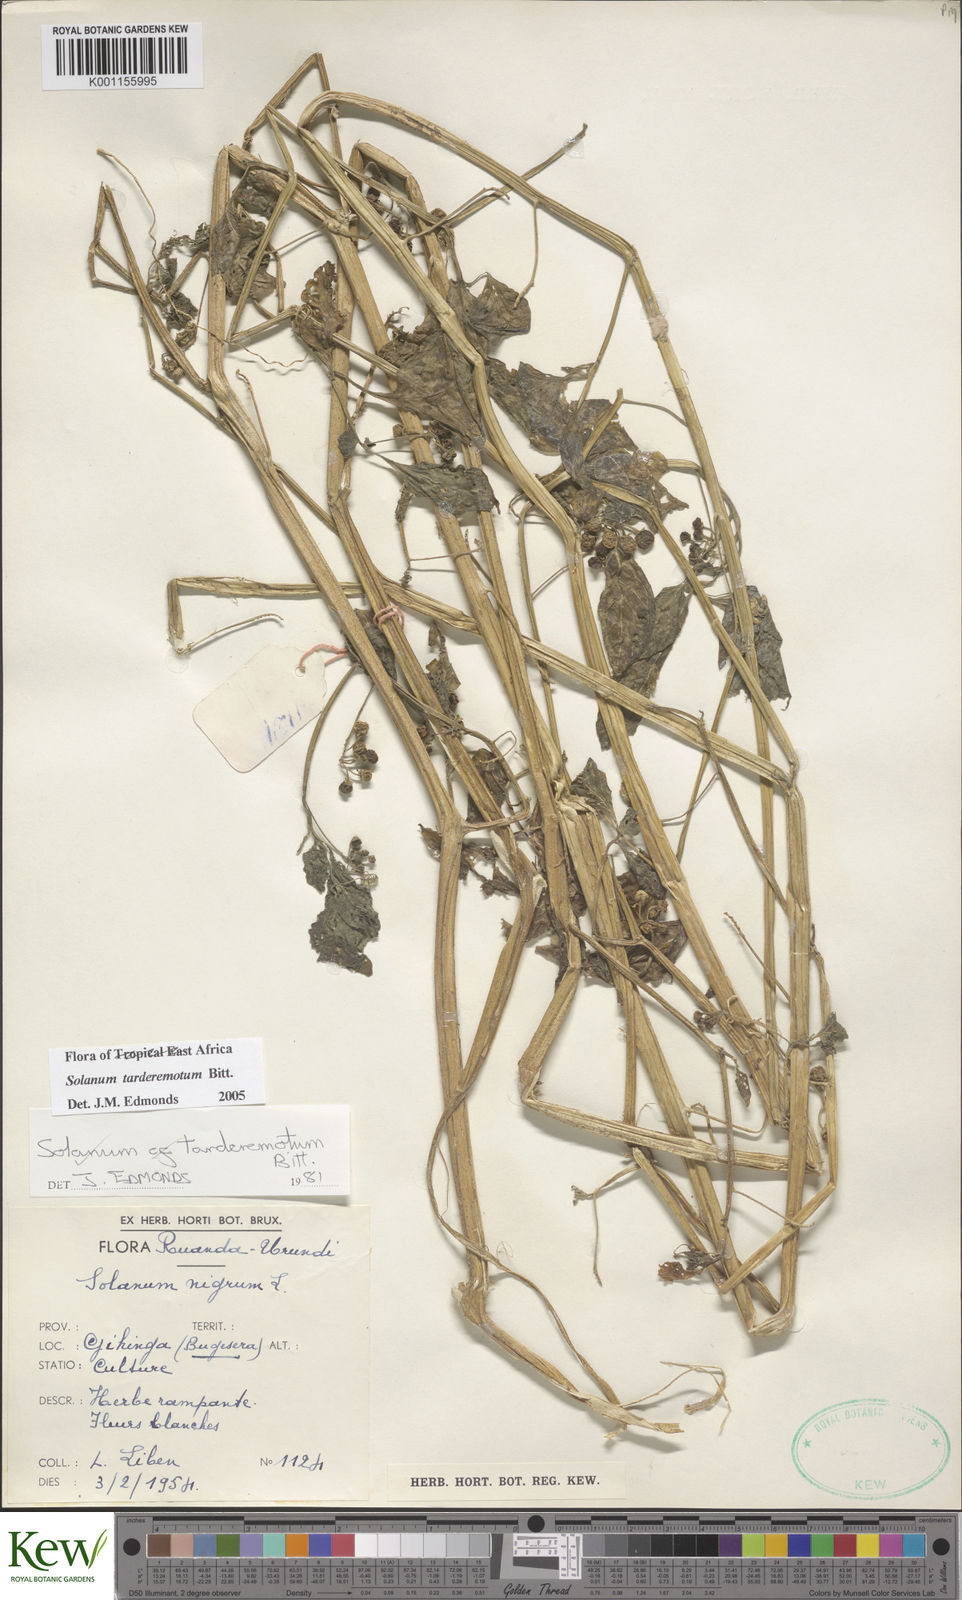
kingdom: Plantae
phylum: Tracheophyta
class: Magnoliopsida
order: Solanales
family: Solanaceae
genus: Solanum
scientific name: Solanum tarderemotum
